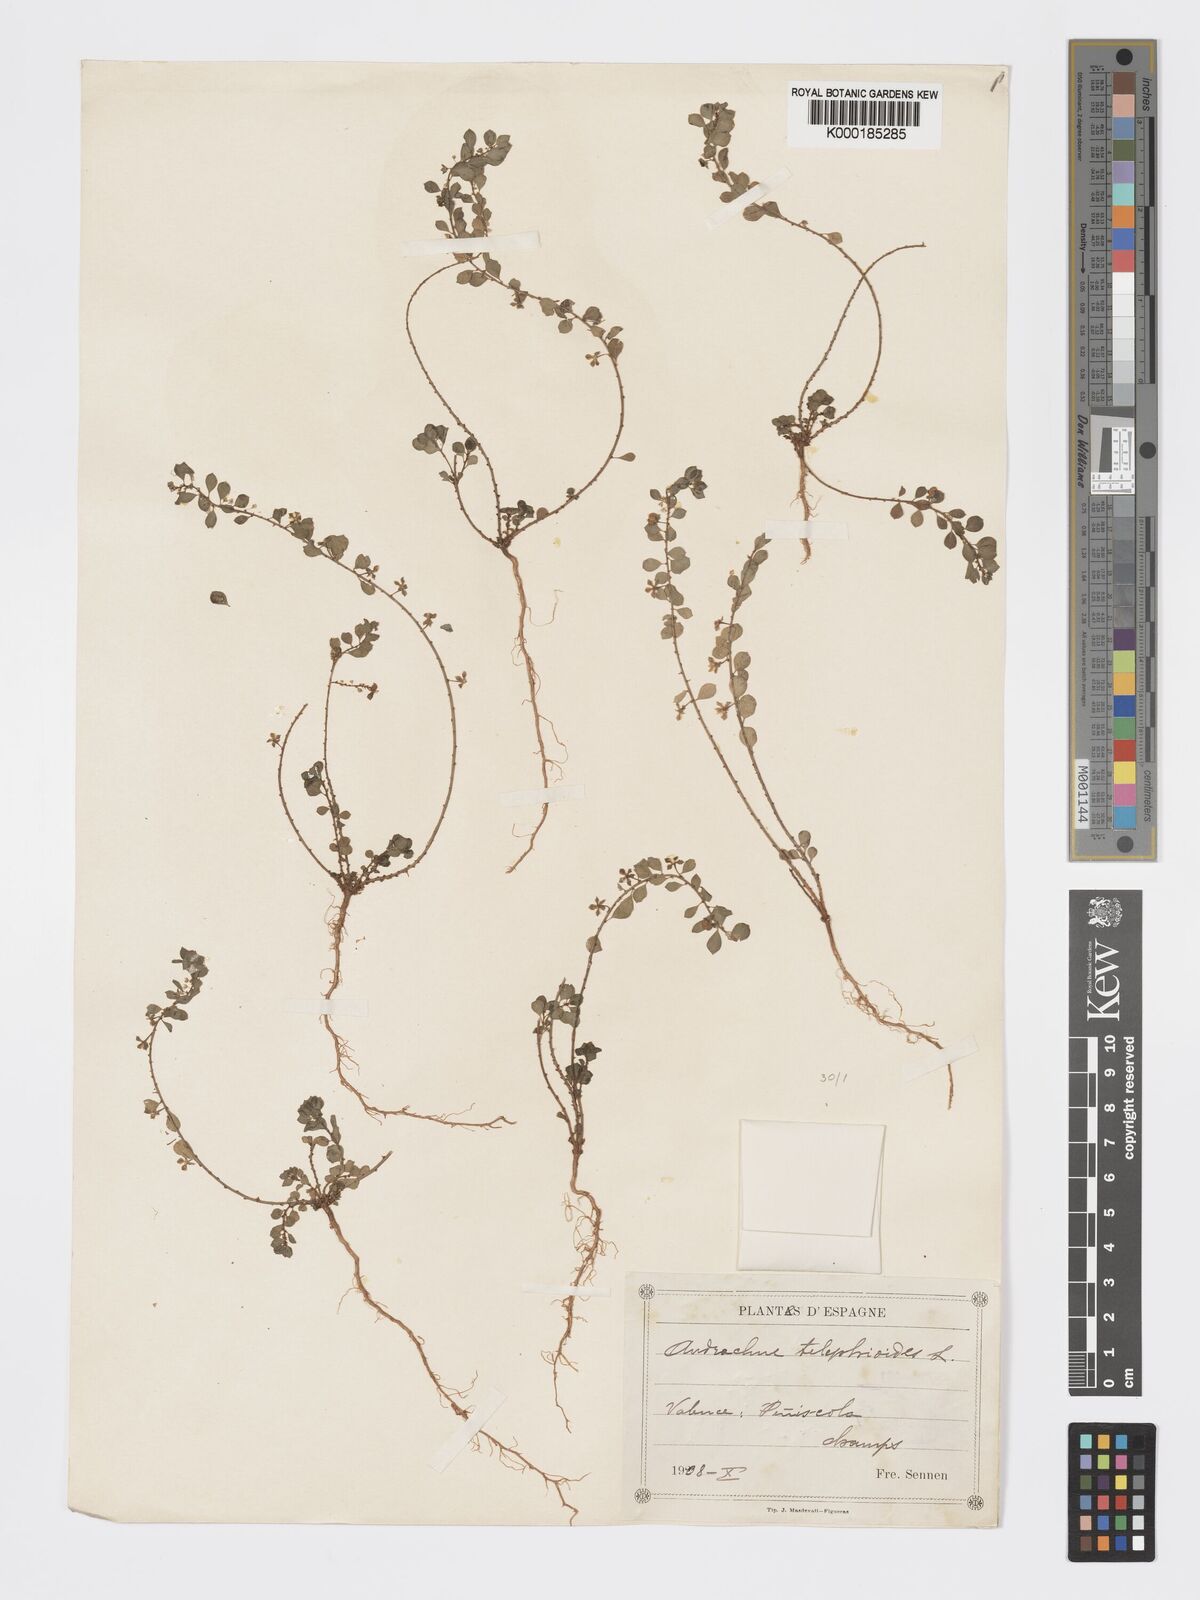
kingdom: Plantae
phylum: Tracheophyta
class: Magnoliopsida
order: Malpighiales
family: Phyllanthaceae
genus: Andrachne
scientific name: Andrachne telephioides
